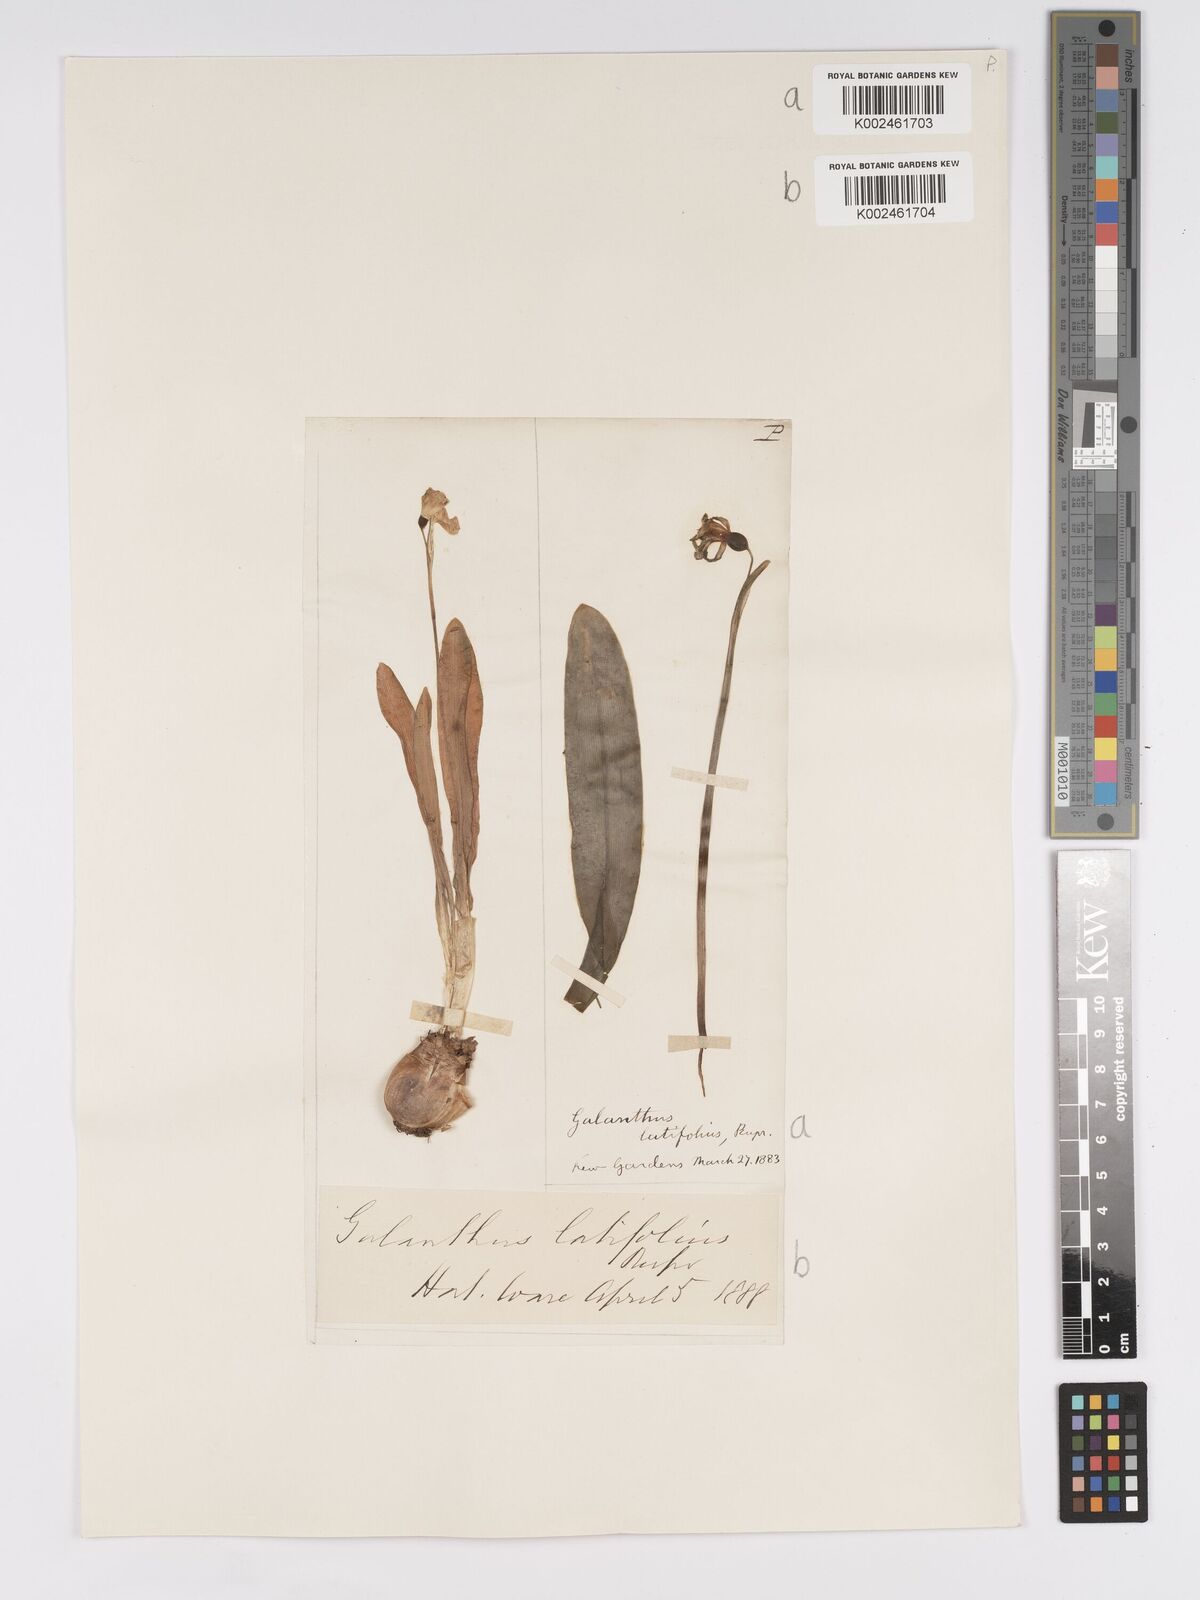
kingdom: Plantae
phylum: Tracheophyta
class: Liliopsida
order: Asparagales
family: Amaryllidaceae
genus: Galanthus
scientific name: Galanthus
